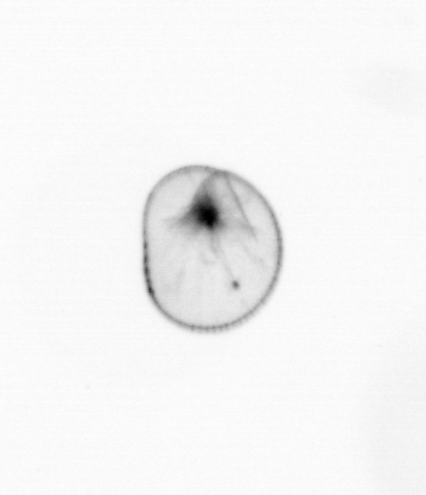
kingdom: Chromista
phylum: Myzozoa
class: Dinophyceae
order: Noctilucales
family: Noctilucaceae
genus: Noctiluca
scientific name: Noctiluca scintillans
